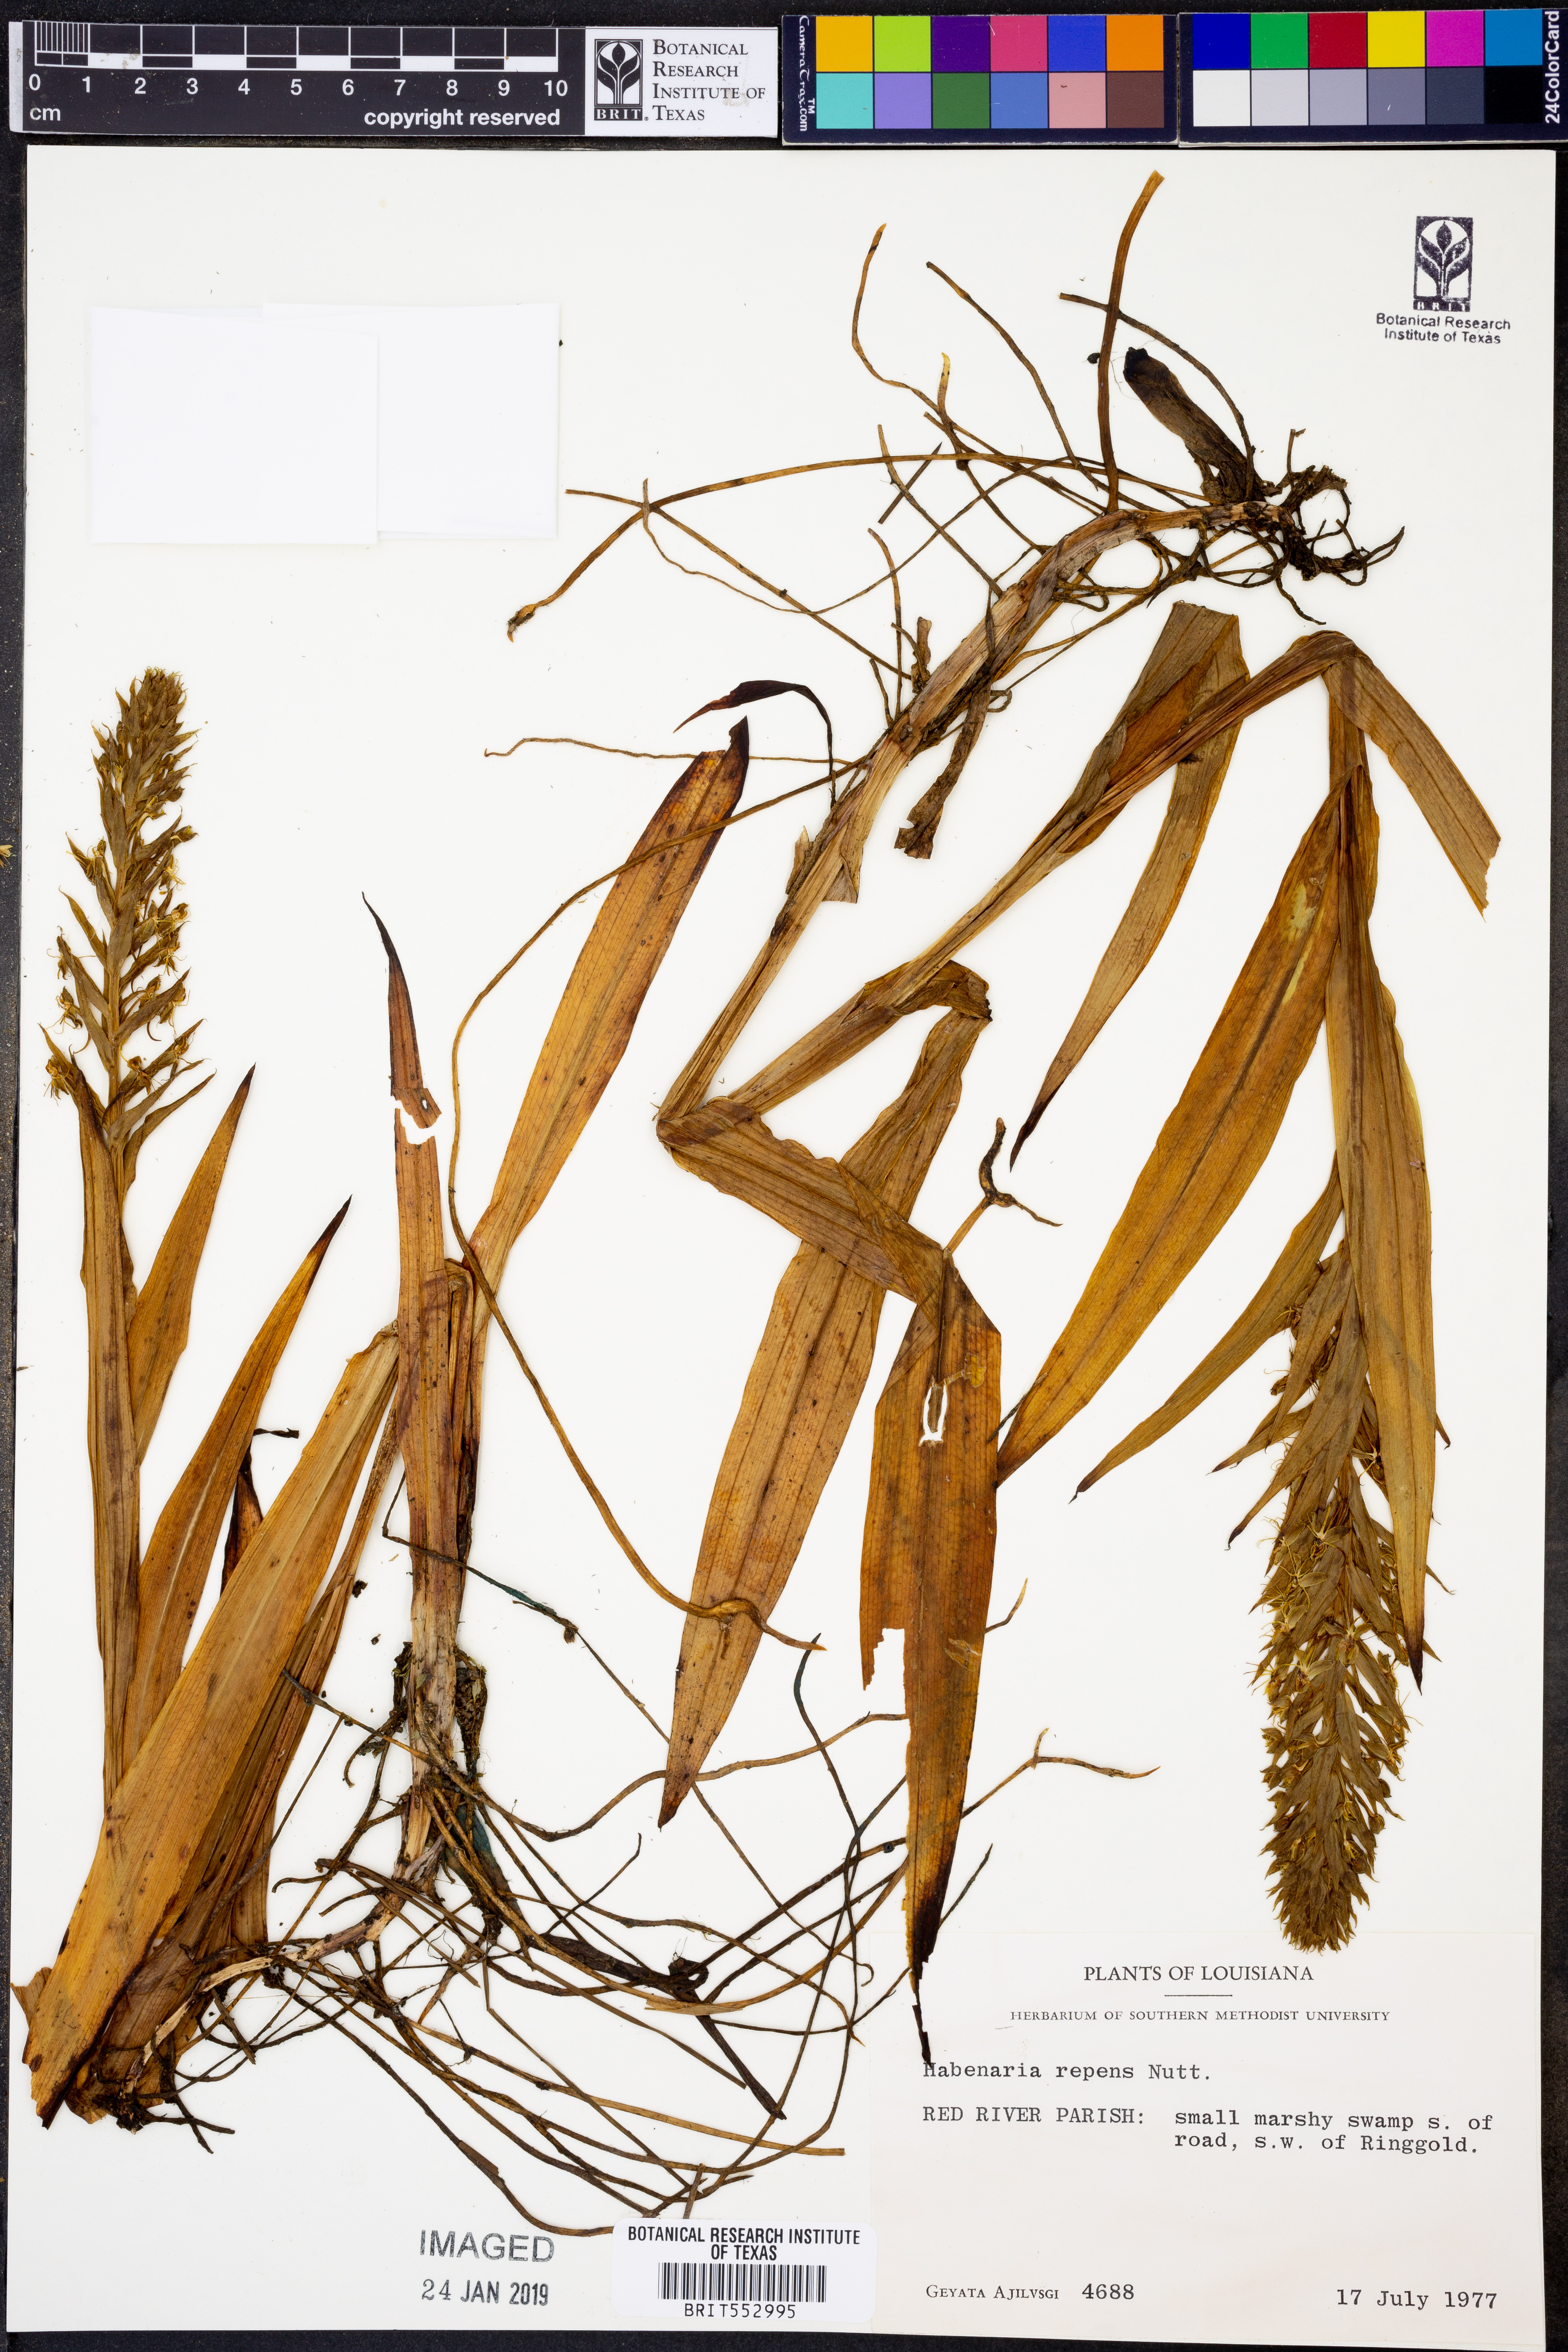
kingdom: Plantae
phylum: Tracheophyta
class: Liliopsida
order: Asparagales
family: Orchidaceae
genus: Habenaria
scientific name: Habenaria repens
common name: Water orchid
